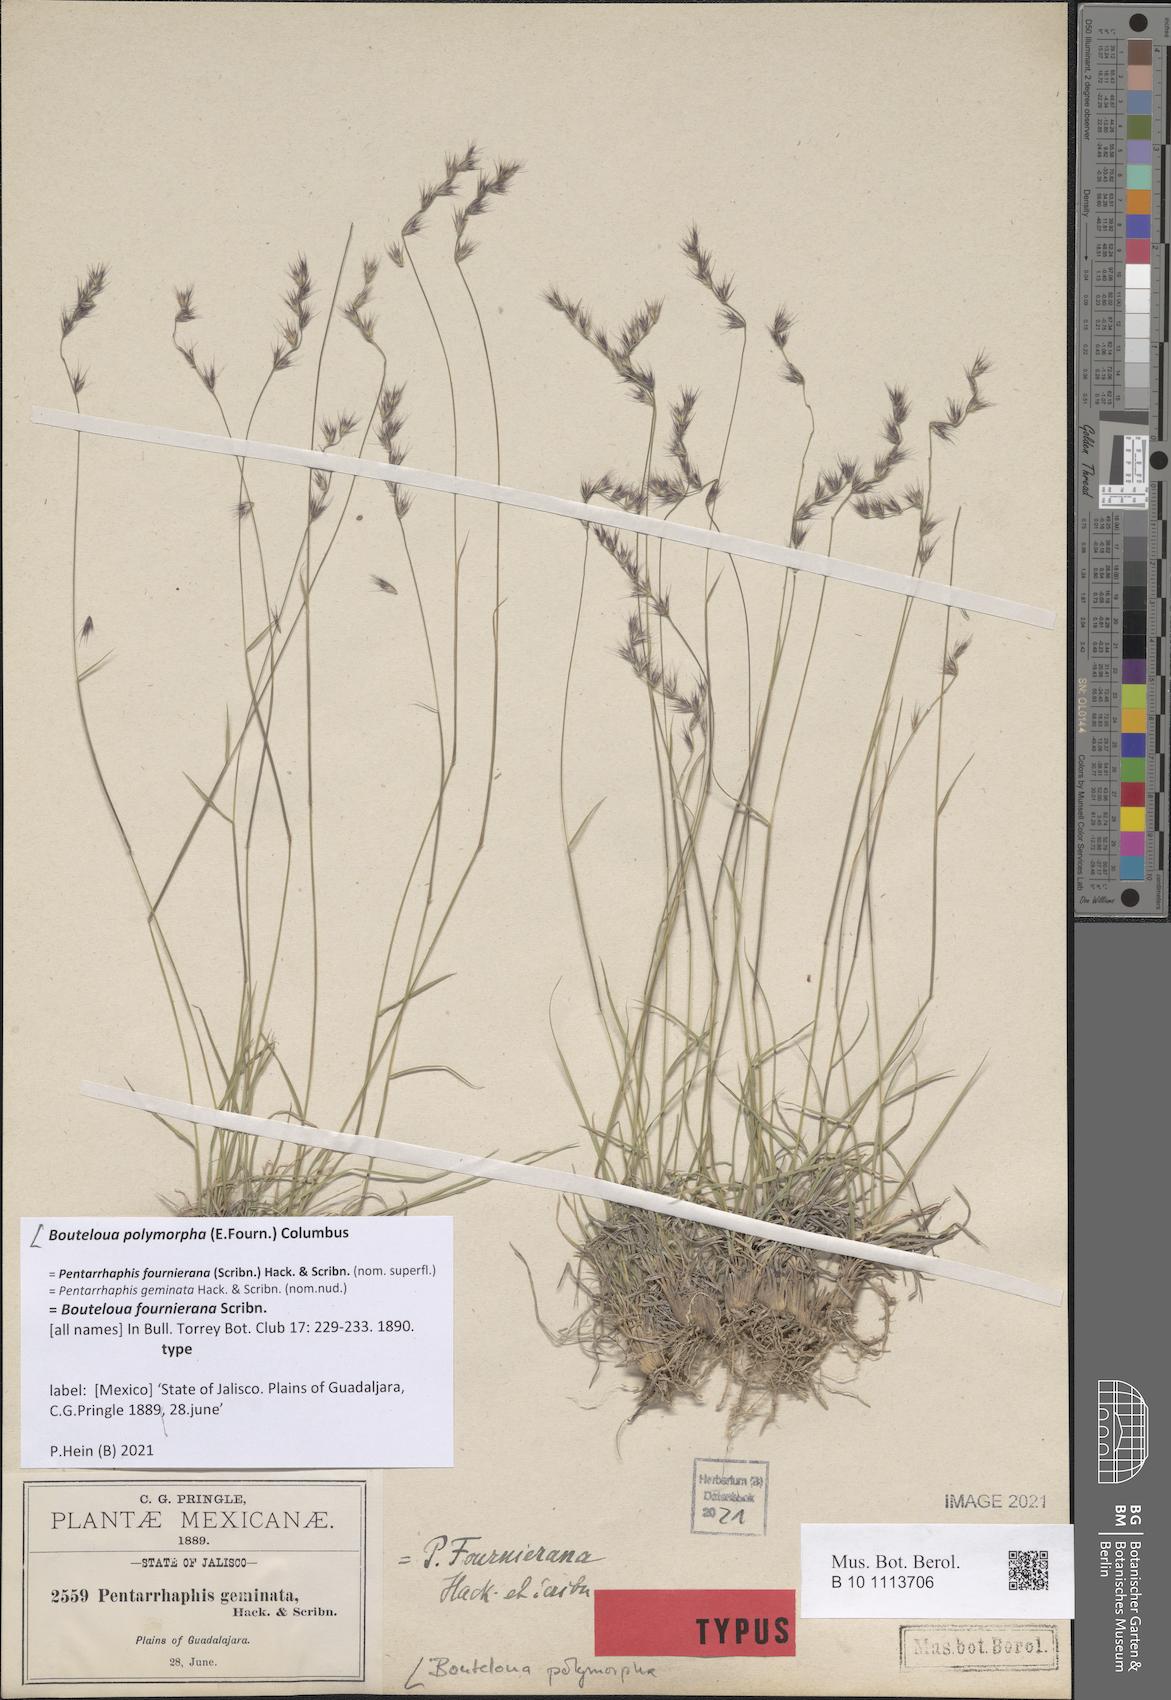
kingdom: Plantae
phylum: Tracheophyta
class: Liliopsida
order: Poales
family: Poaceae
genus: Bouteloua
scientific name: Bouteloua polymorpha
